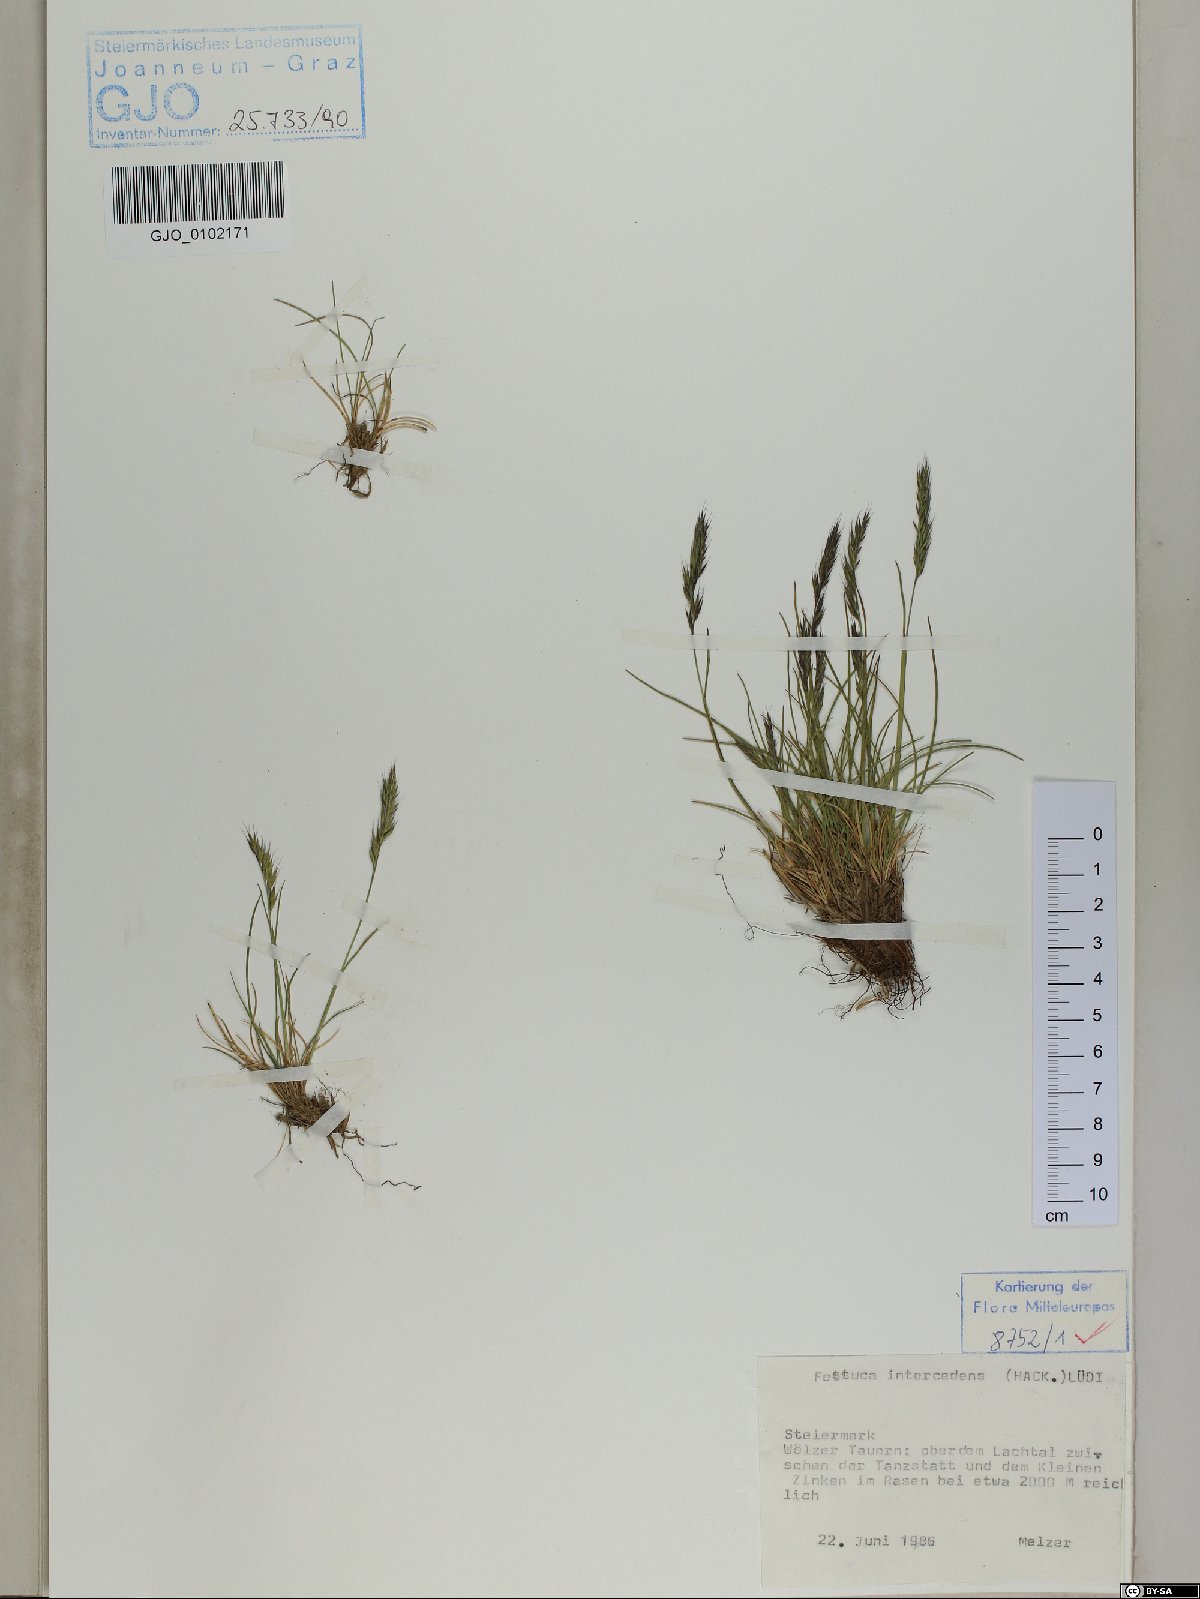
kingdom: Plantae
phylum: Tracheophyta
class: Liliopsida
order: Poales
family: Poaceae
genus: Festuca
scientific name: Festuca intercedens
